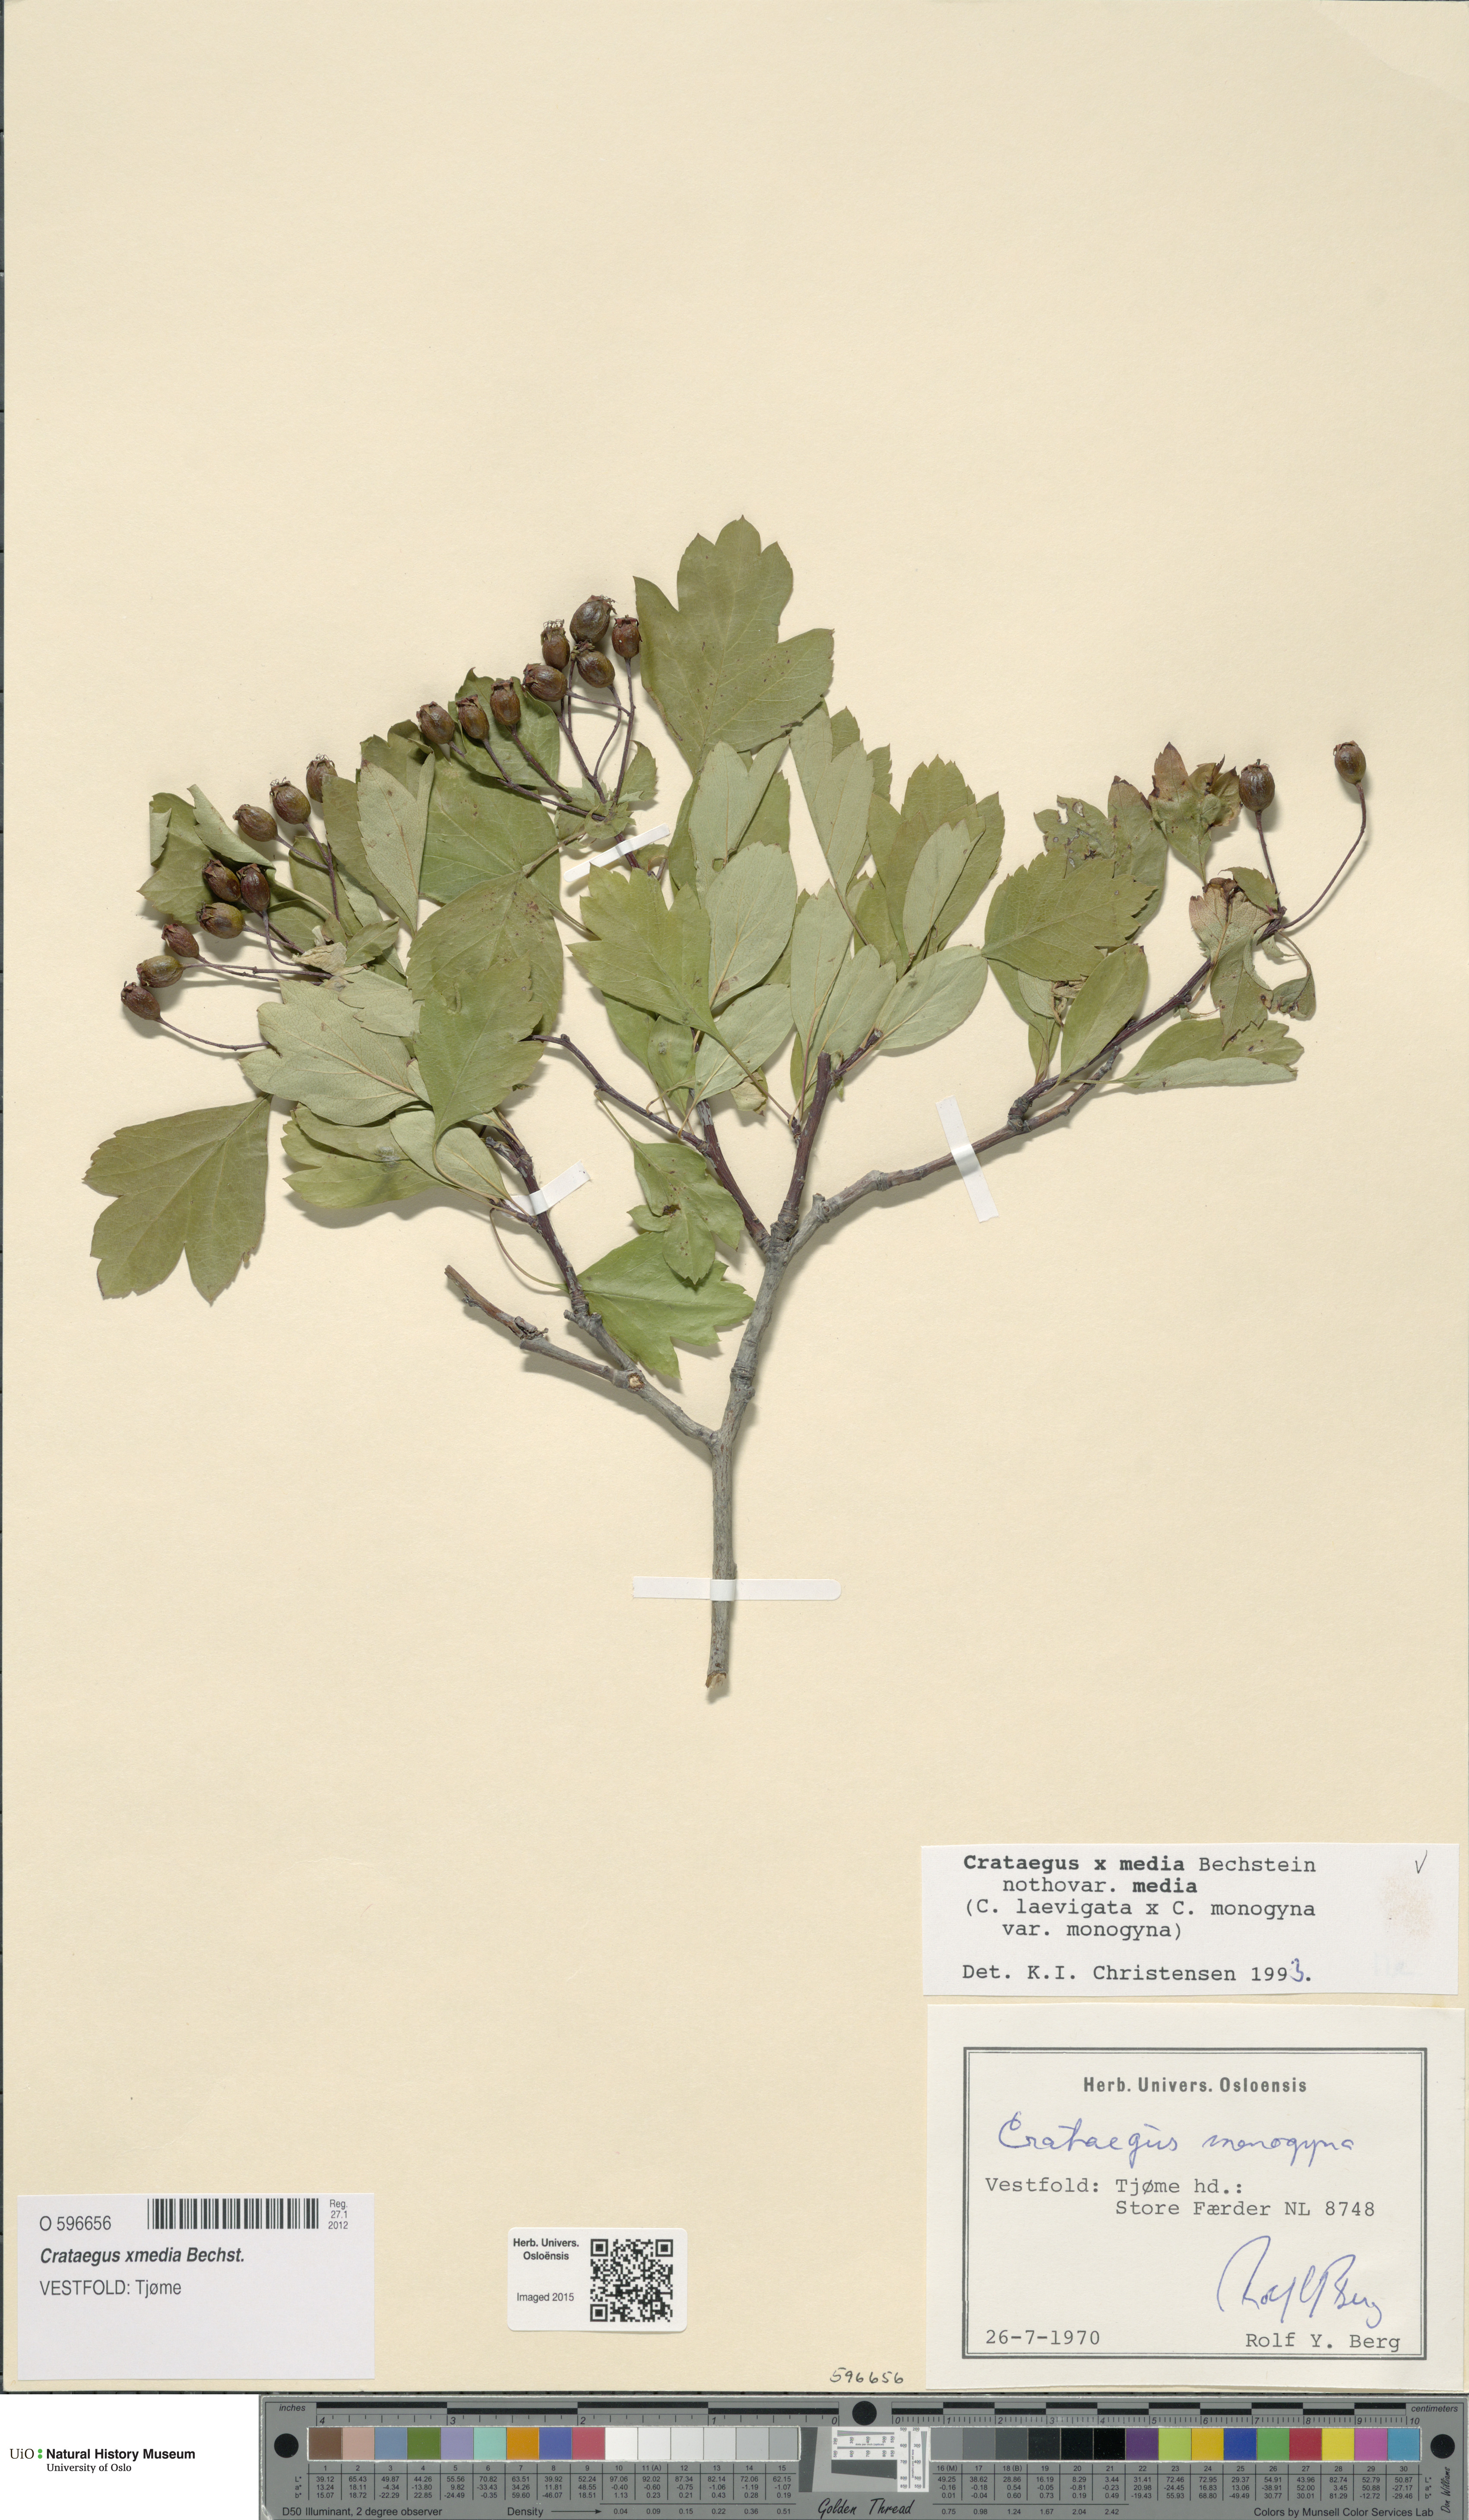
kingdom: Plantae
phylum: Tracheophyta
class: Magnoliopsida
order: Rosales
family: Rosaceae
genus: Crataegus
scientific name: Crataegus media
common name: Intermediate hawthorn
